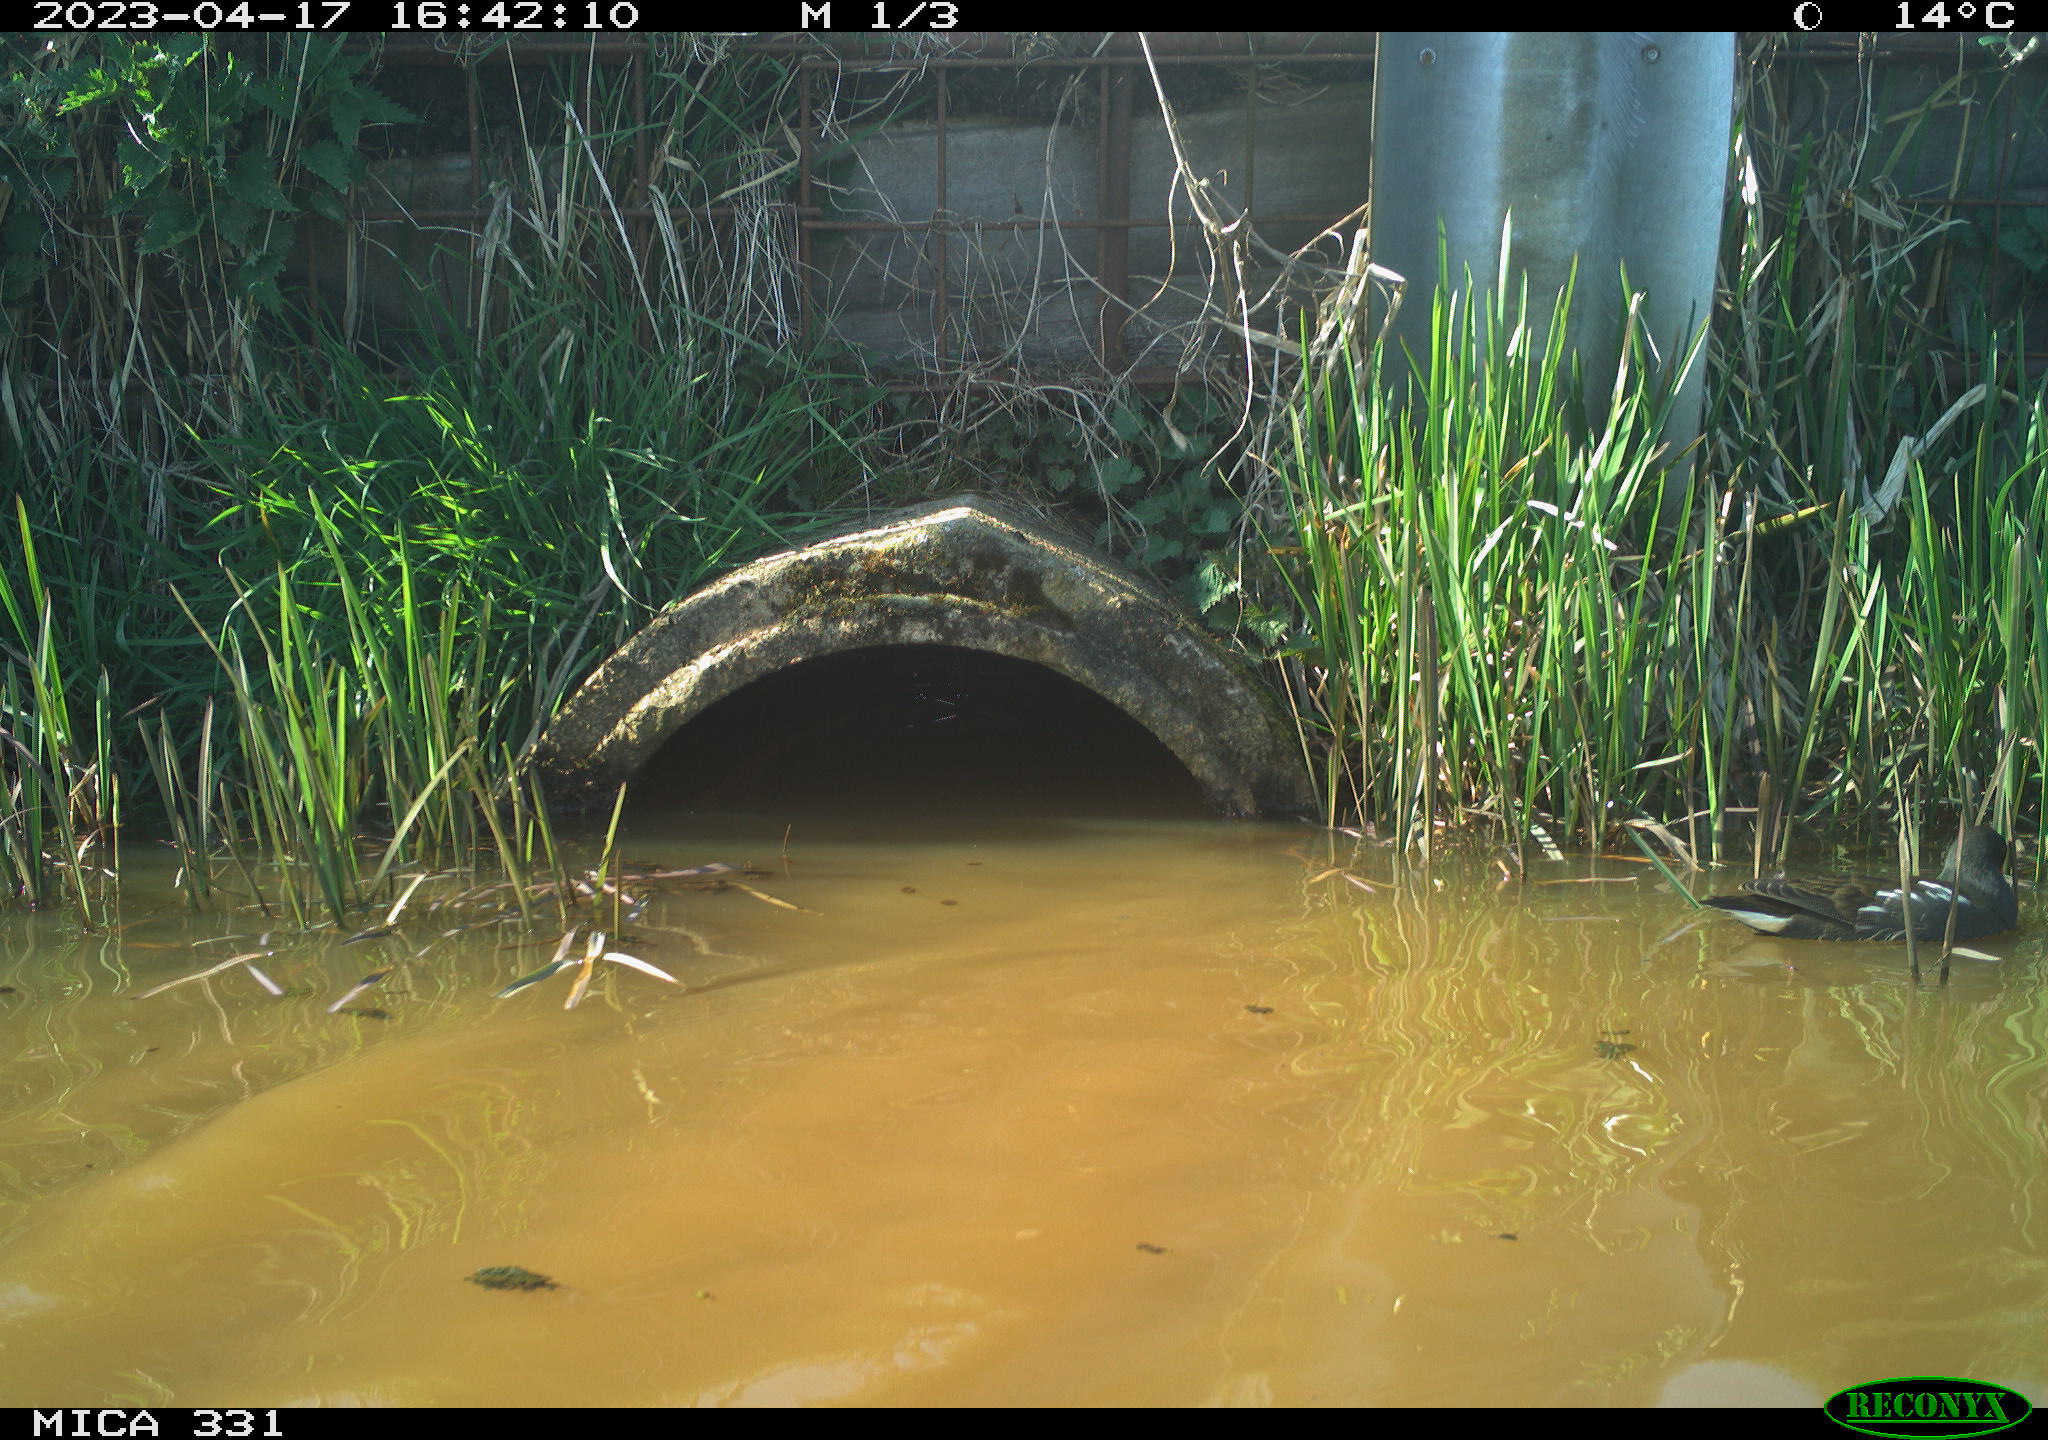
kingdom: Animalia
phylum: Chordata
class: Aves
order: Gruiformes
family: Rallidae
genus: Gallinula
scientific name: Gallinula chloropus
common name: Common moorhen
